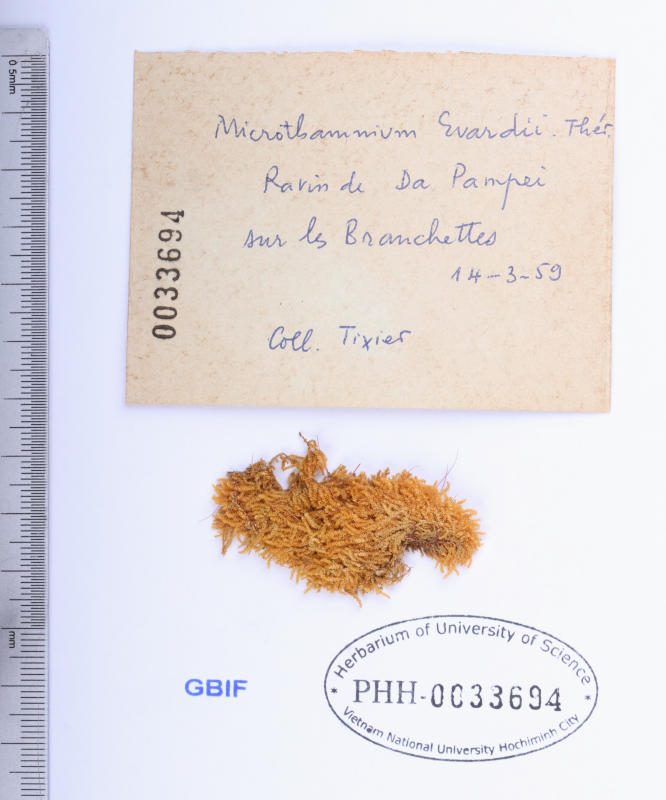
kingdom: Plantae
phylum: Bryophyta
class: Bryopsida
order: Hypnales
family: Hypnaceae
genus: Mittenothamnium
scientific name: Mittenothamnium evrardii
